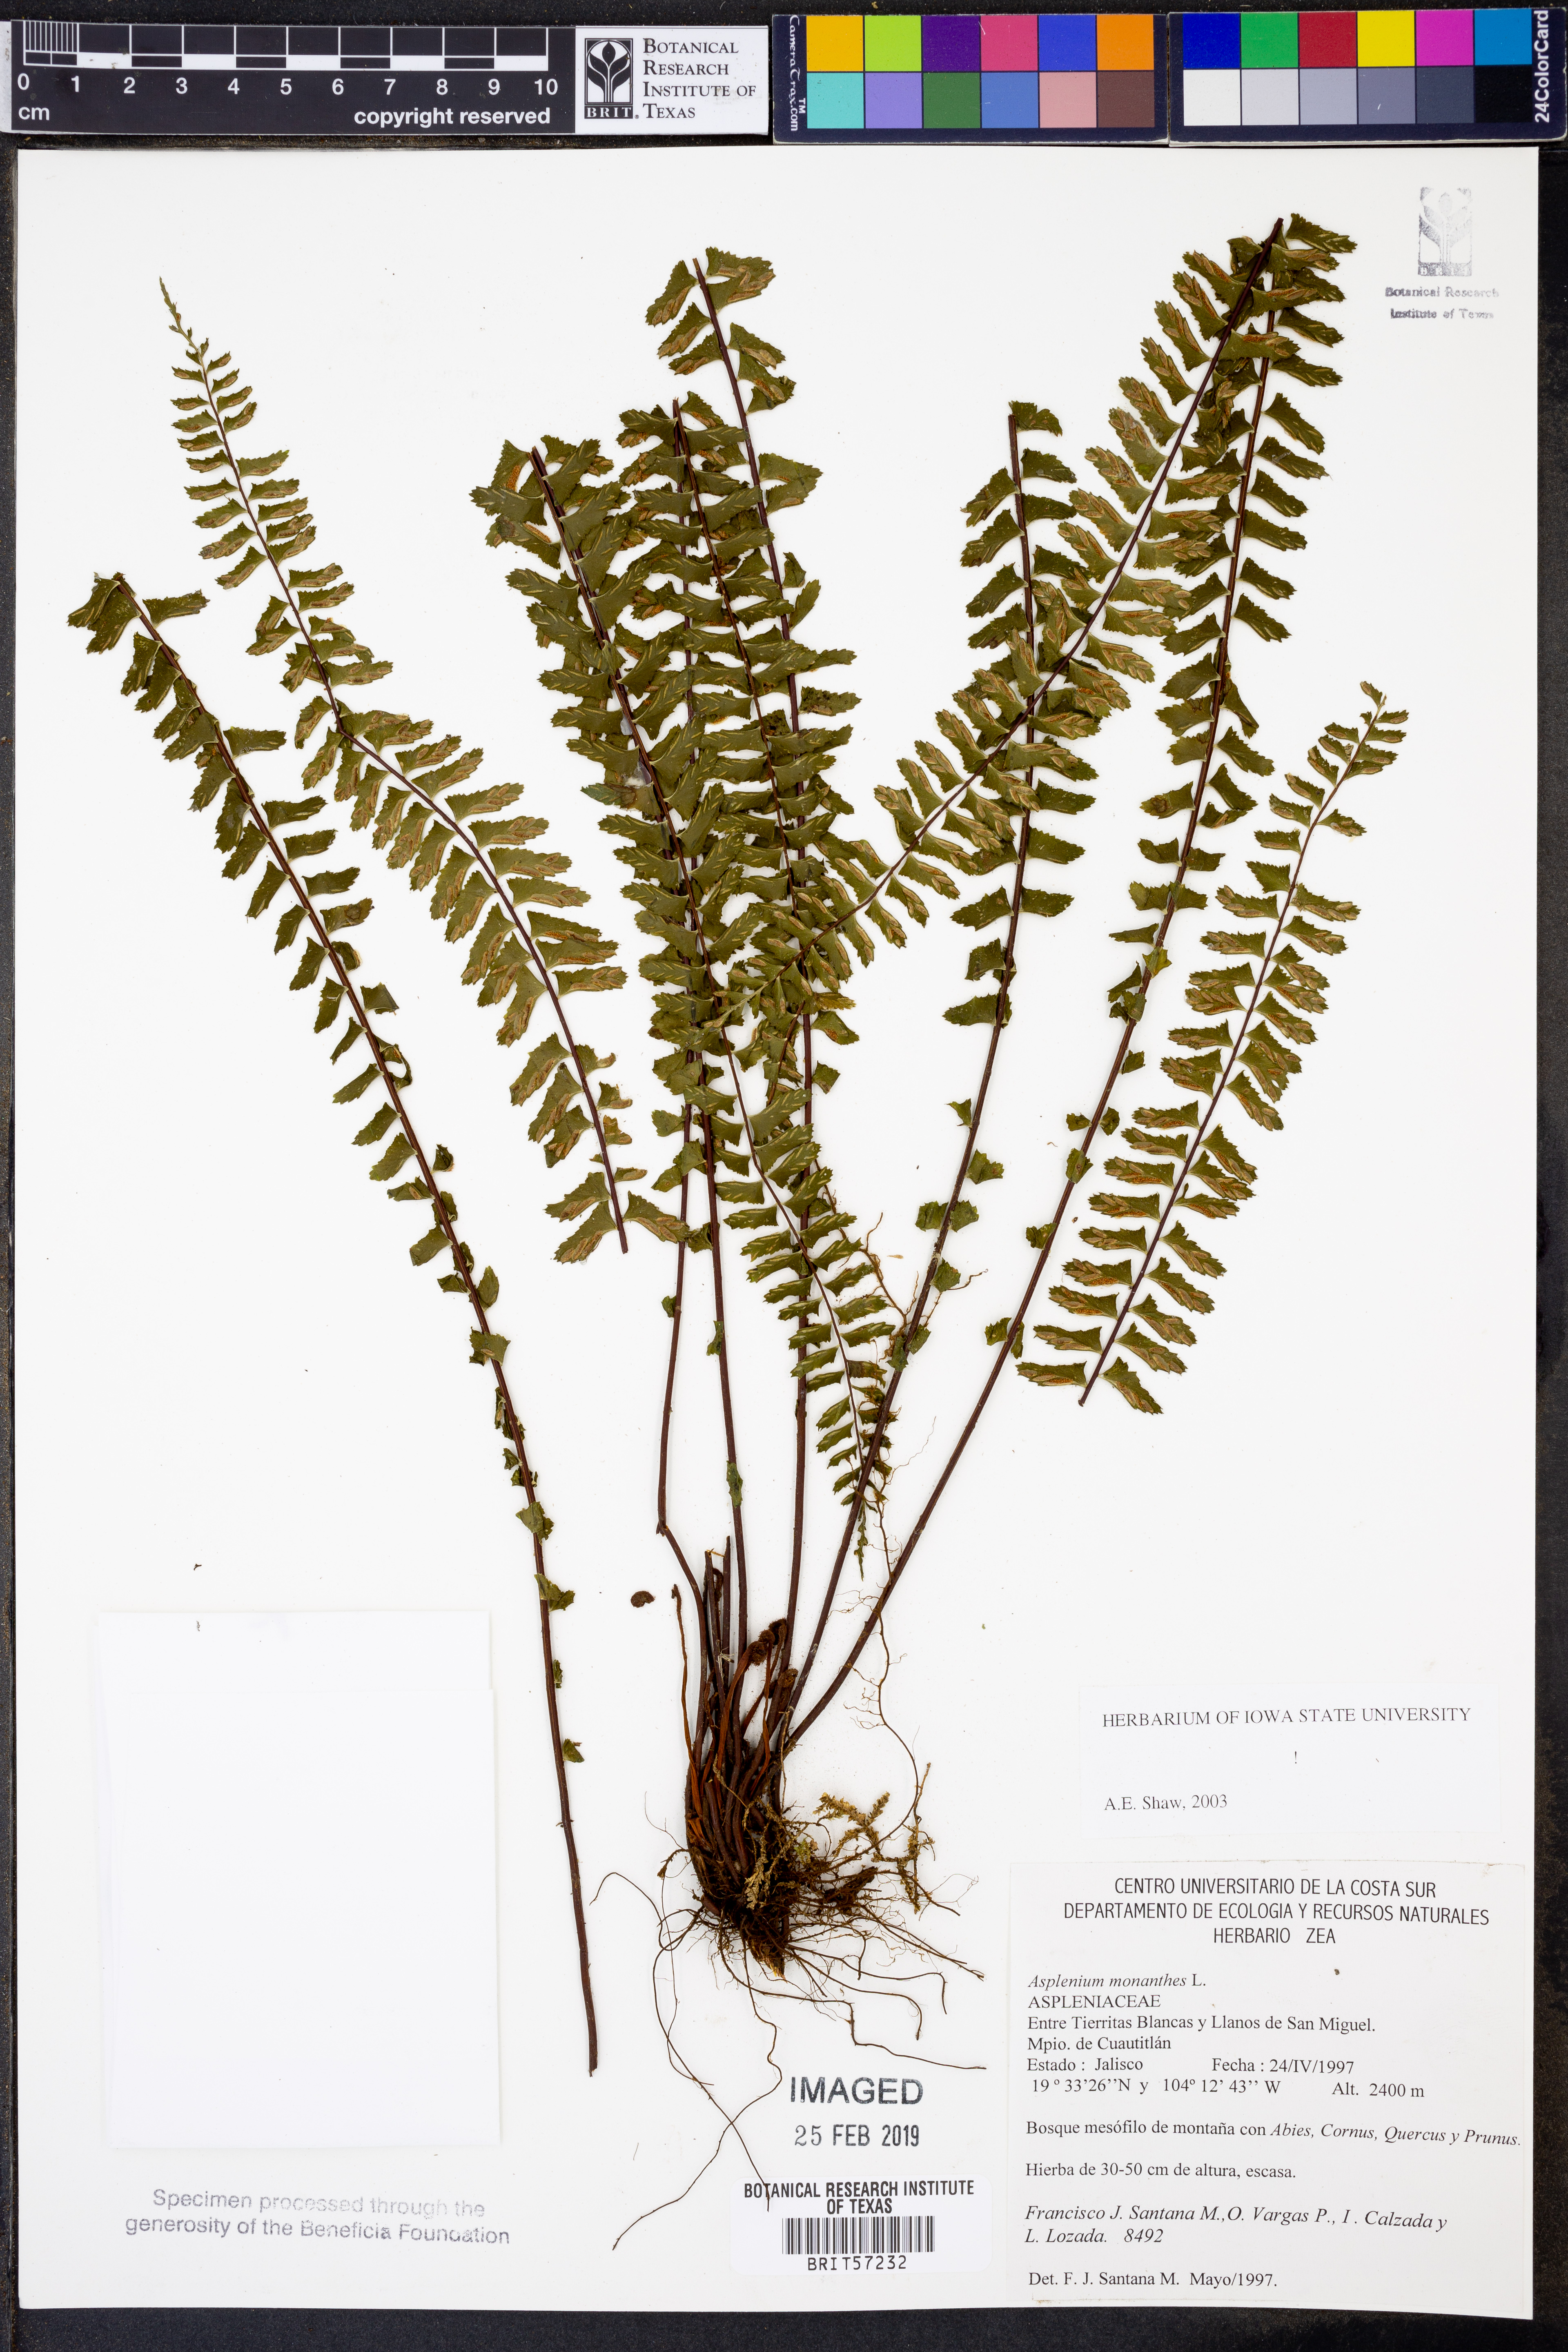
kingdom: Plantae
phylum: Tracheophyta
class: Polypodiopsida
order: Polypodiales
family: Aspleniaceae
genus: Asplenium
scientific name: Asplenium monanthes
